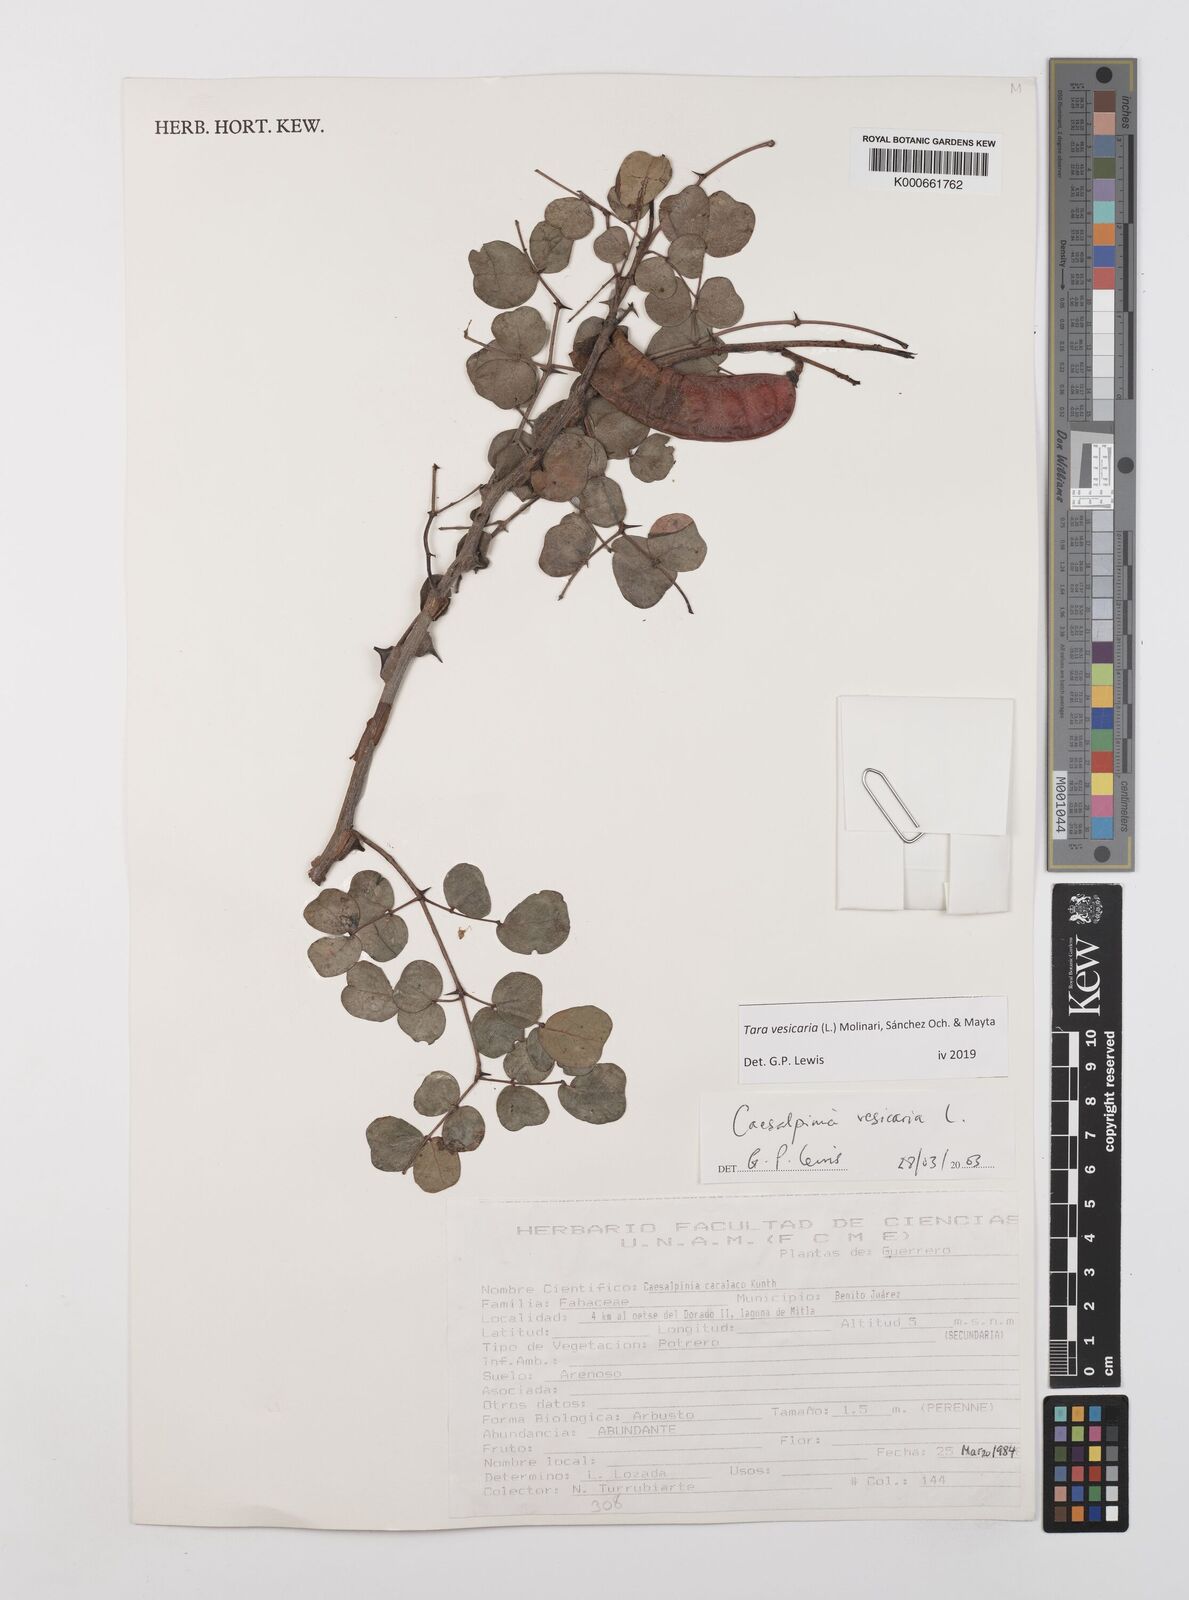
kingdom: Plantae
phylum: Tracheophyta
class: Magnoliopsida
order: Fabales
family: Fabaceae
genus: Tara
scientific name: Tara vesicaria
